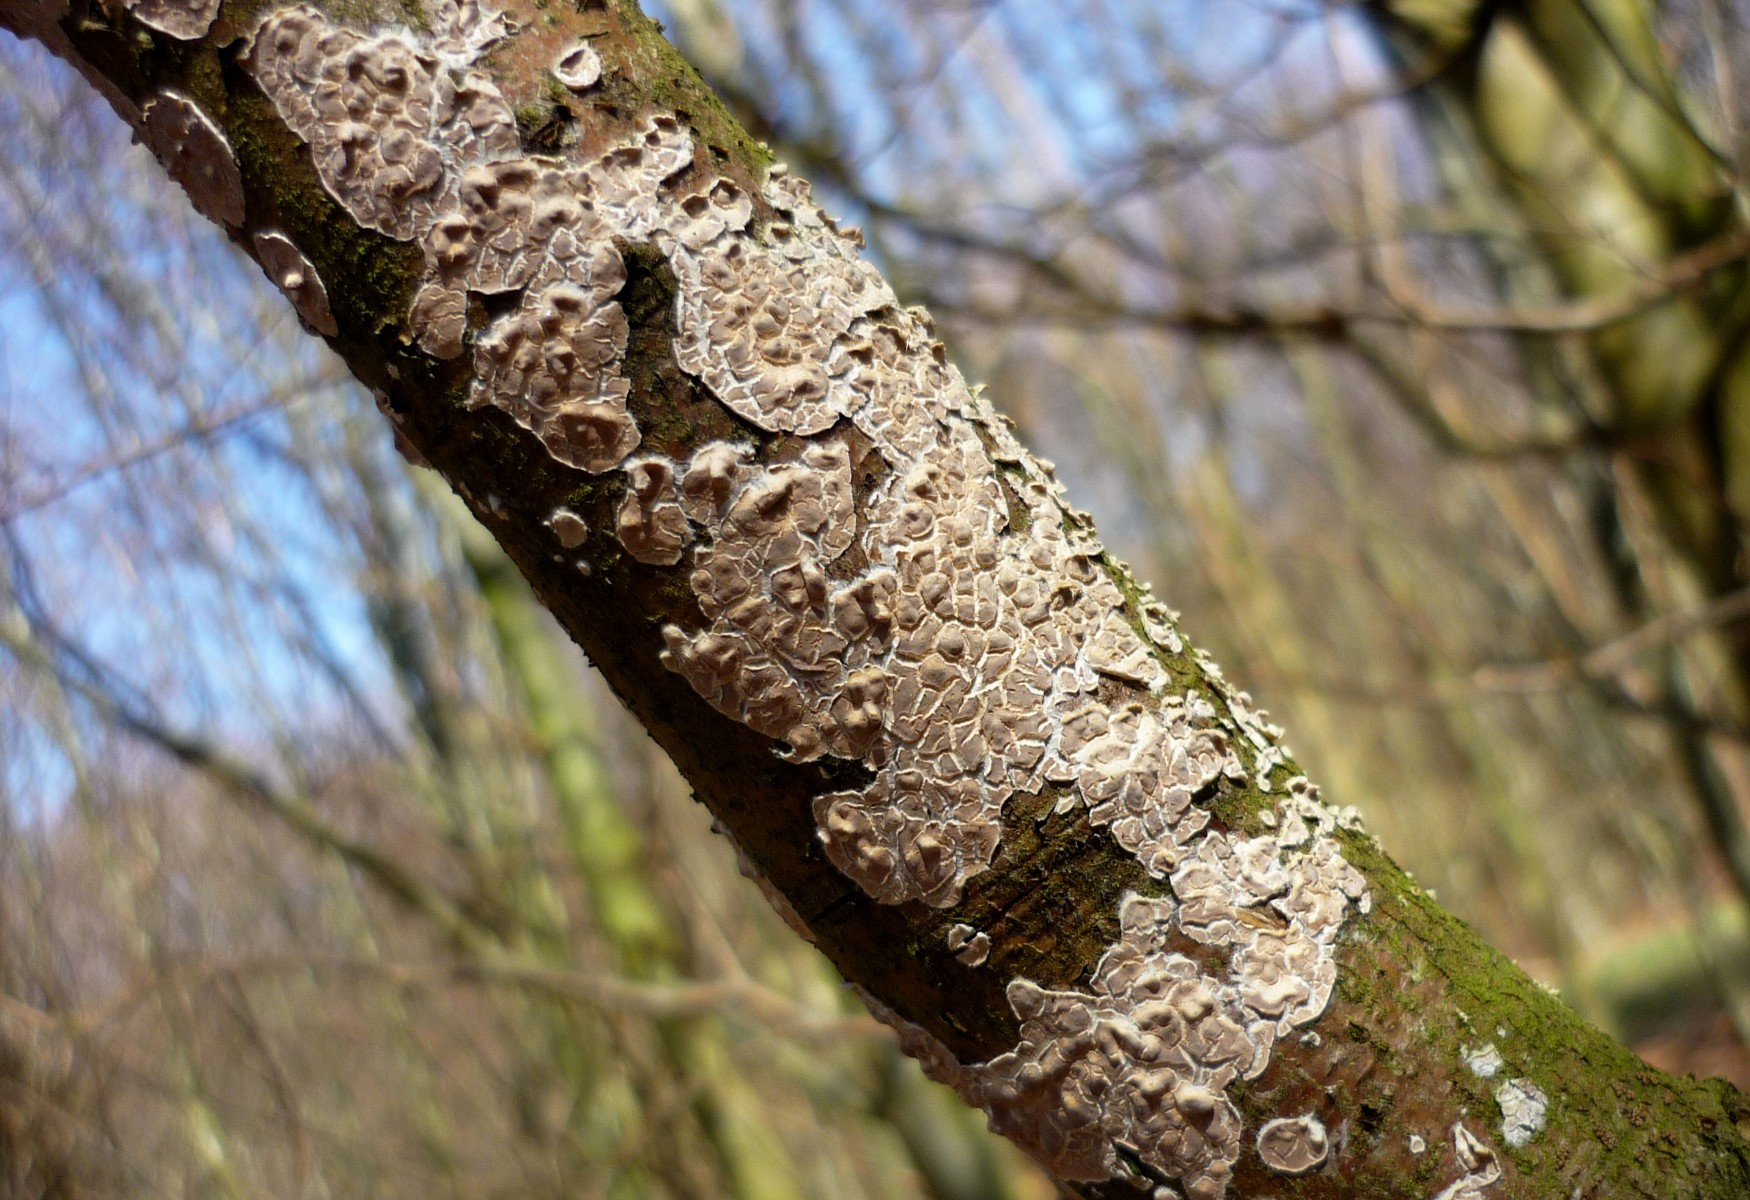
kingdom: Fungi
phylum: Basidiomycota
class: Agaricomycetes
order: Agaricales
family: Physalacriaceae
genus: Cylindrobasidium
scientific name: Cylindrobasidium evolvens
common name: sprækkehinde
